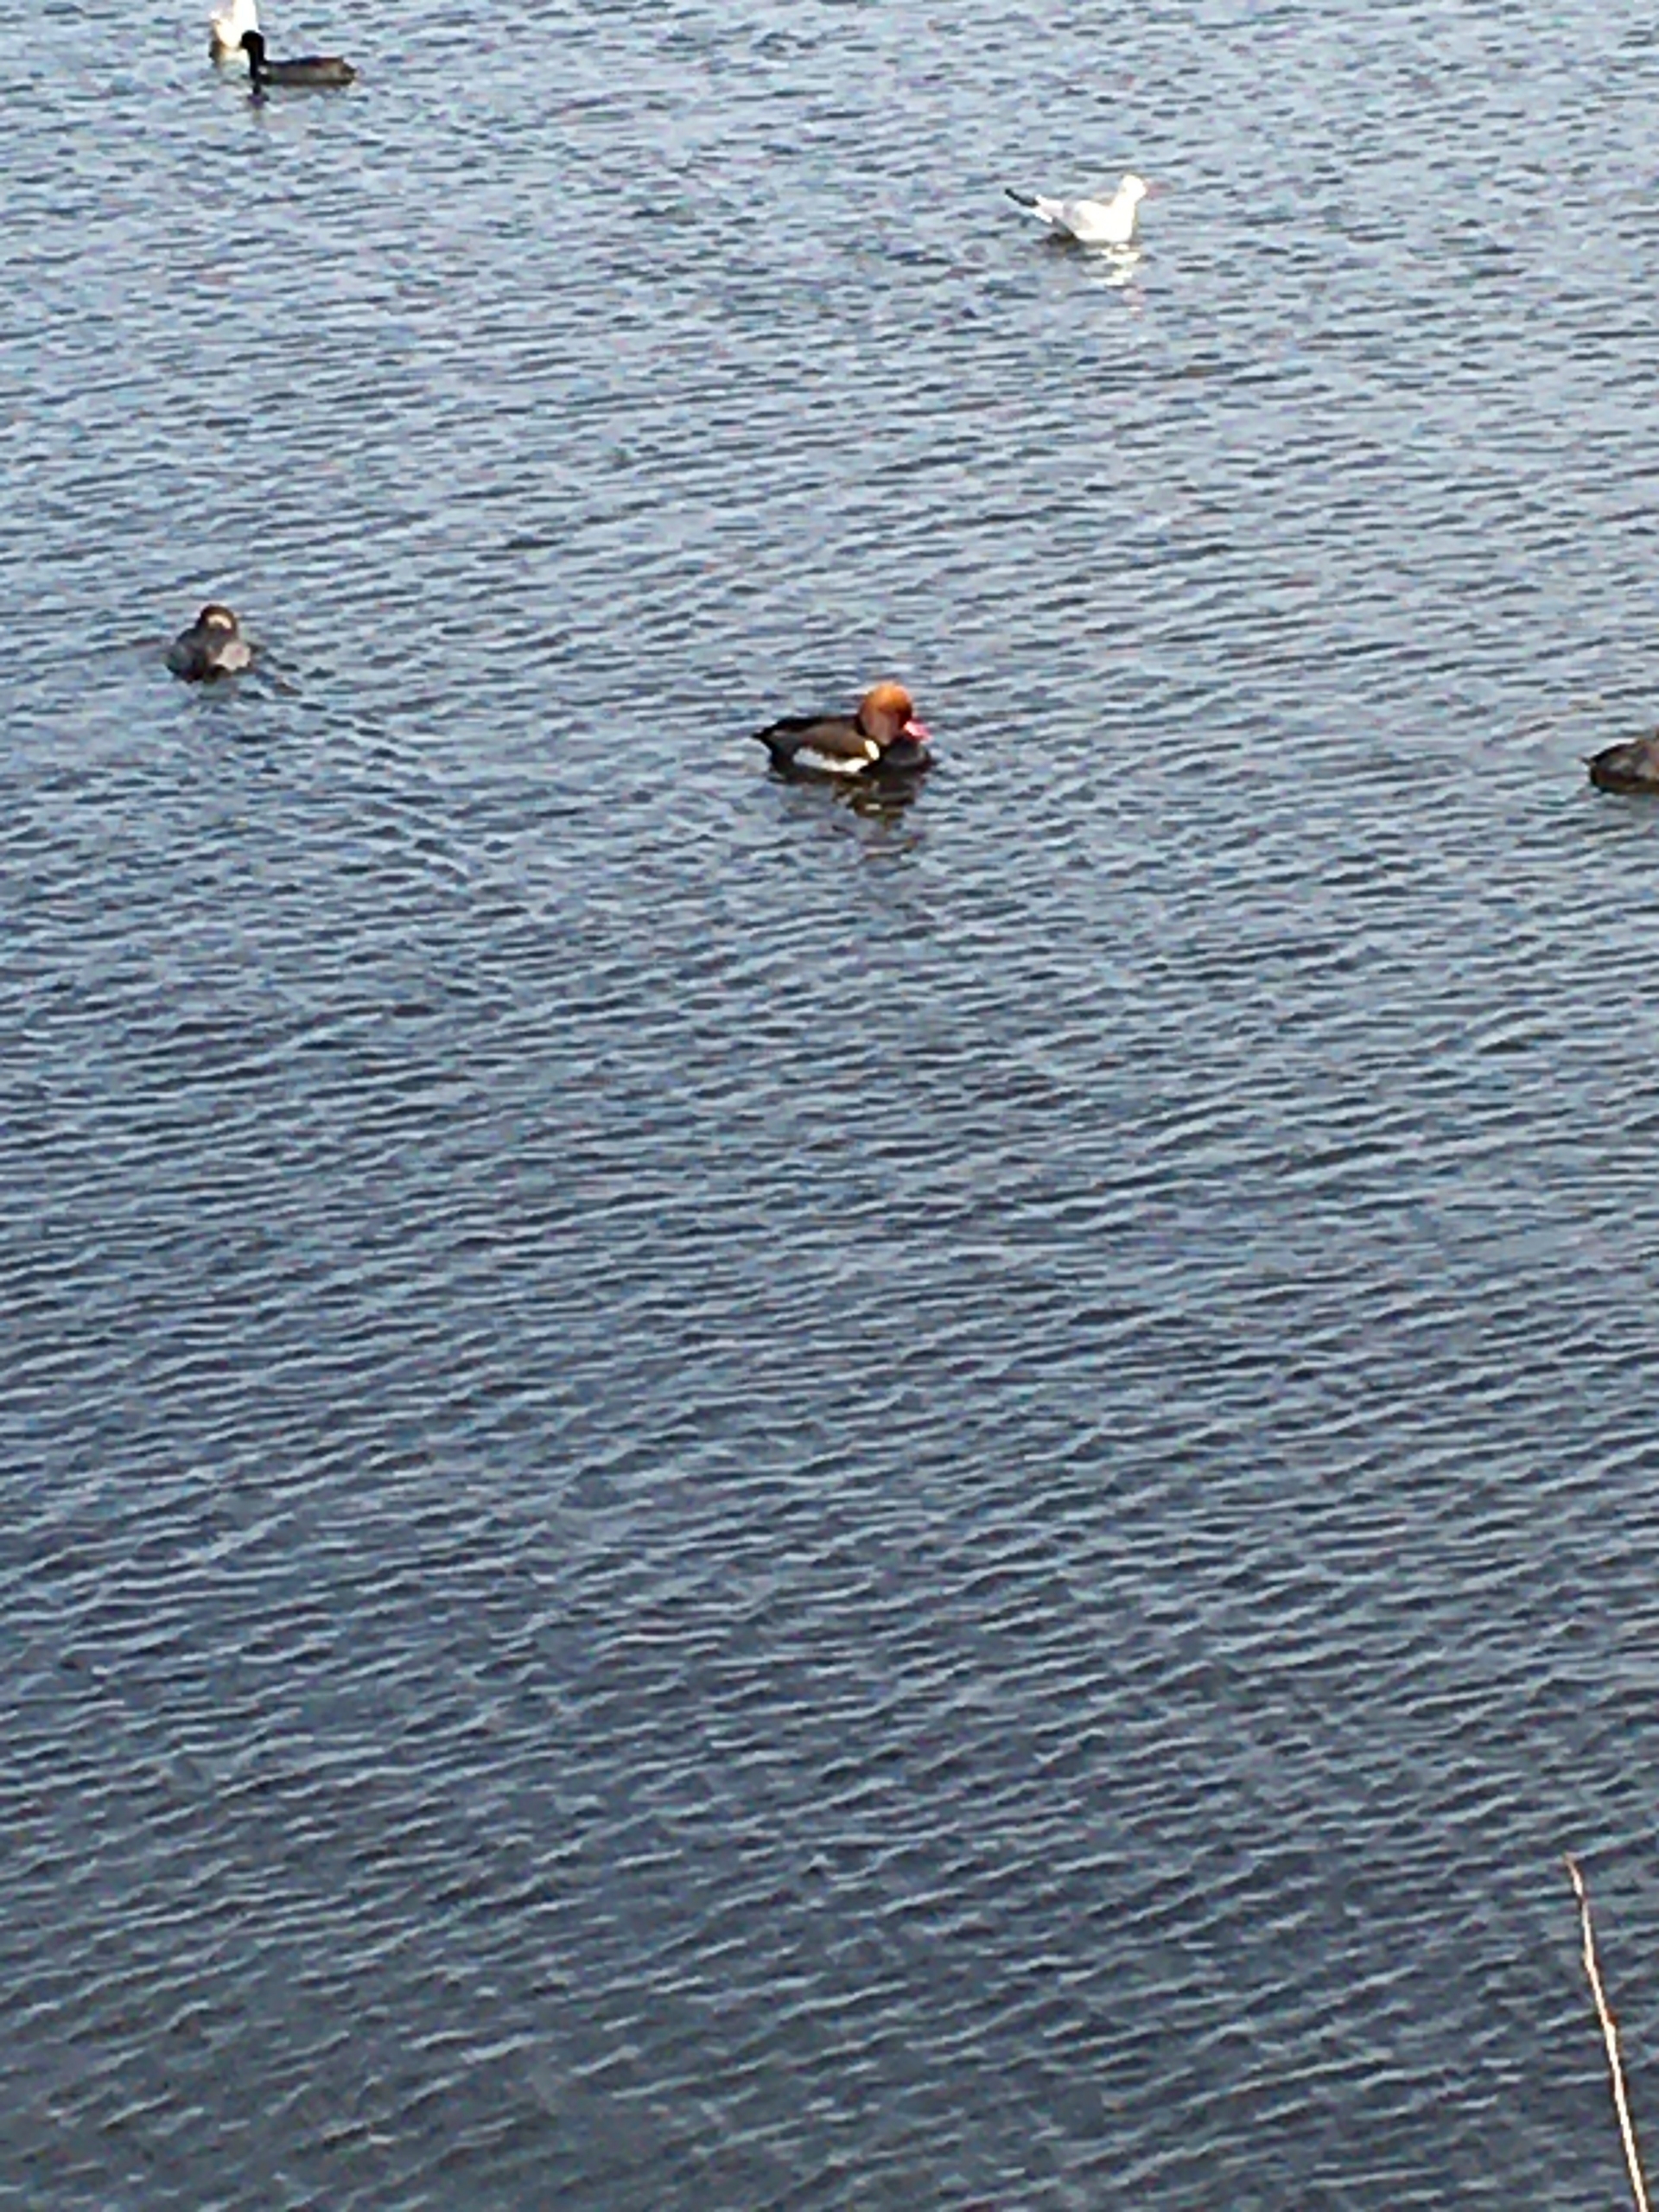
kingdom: Animalia
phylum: Chordata
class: Aves
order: Anseriformes
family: Anatidae
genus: Netta
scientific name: Netta rufina
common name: Rødhovedet and
